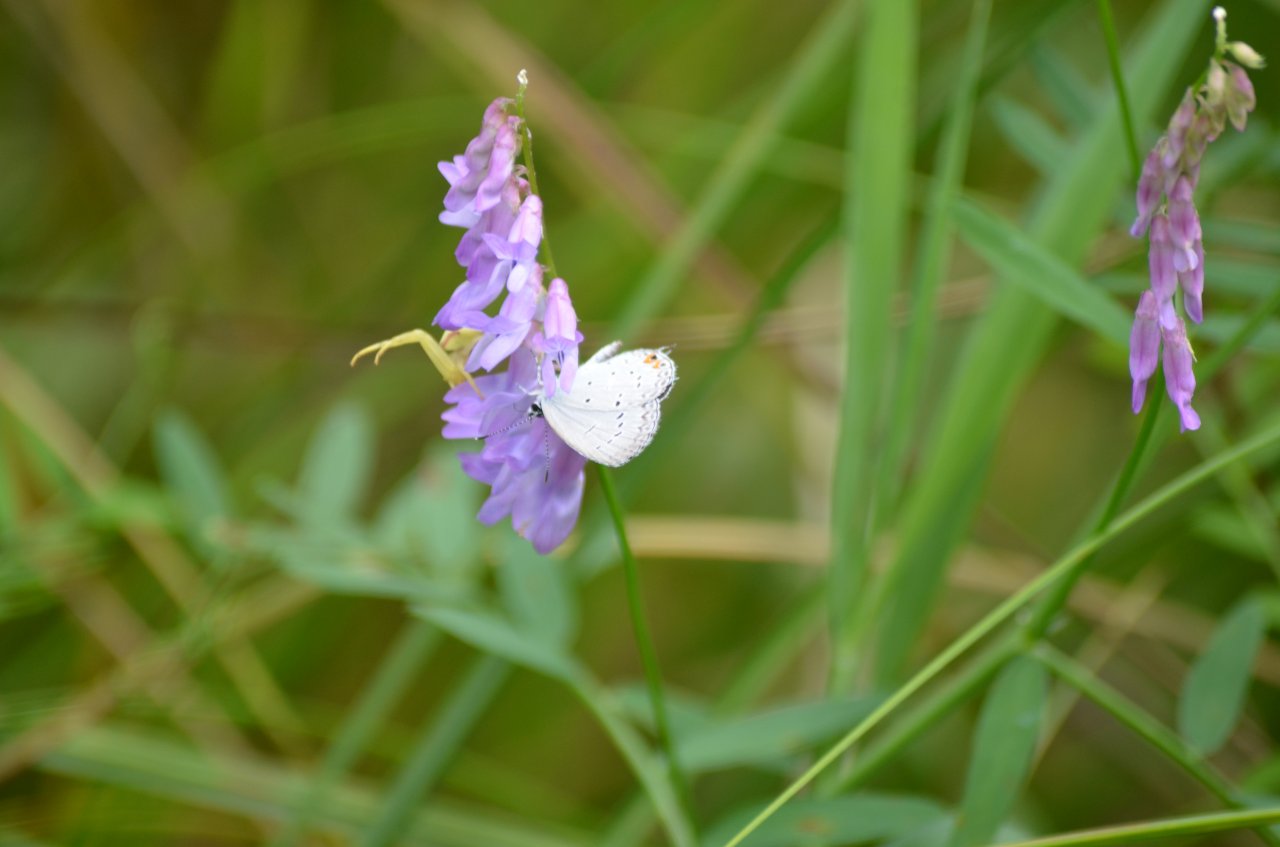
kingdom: Animalia
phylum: Arthropoda
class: Insecta
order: Lepidoptera
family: Lycaenidae
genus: Elkalyce
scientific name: Elkalyce comyntas
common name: Eastern Tailed-Blue
